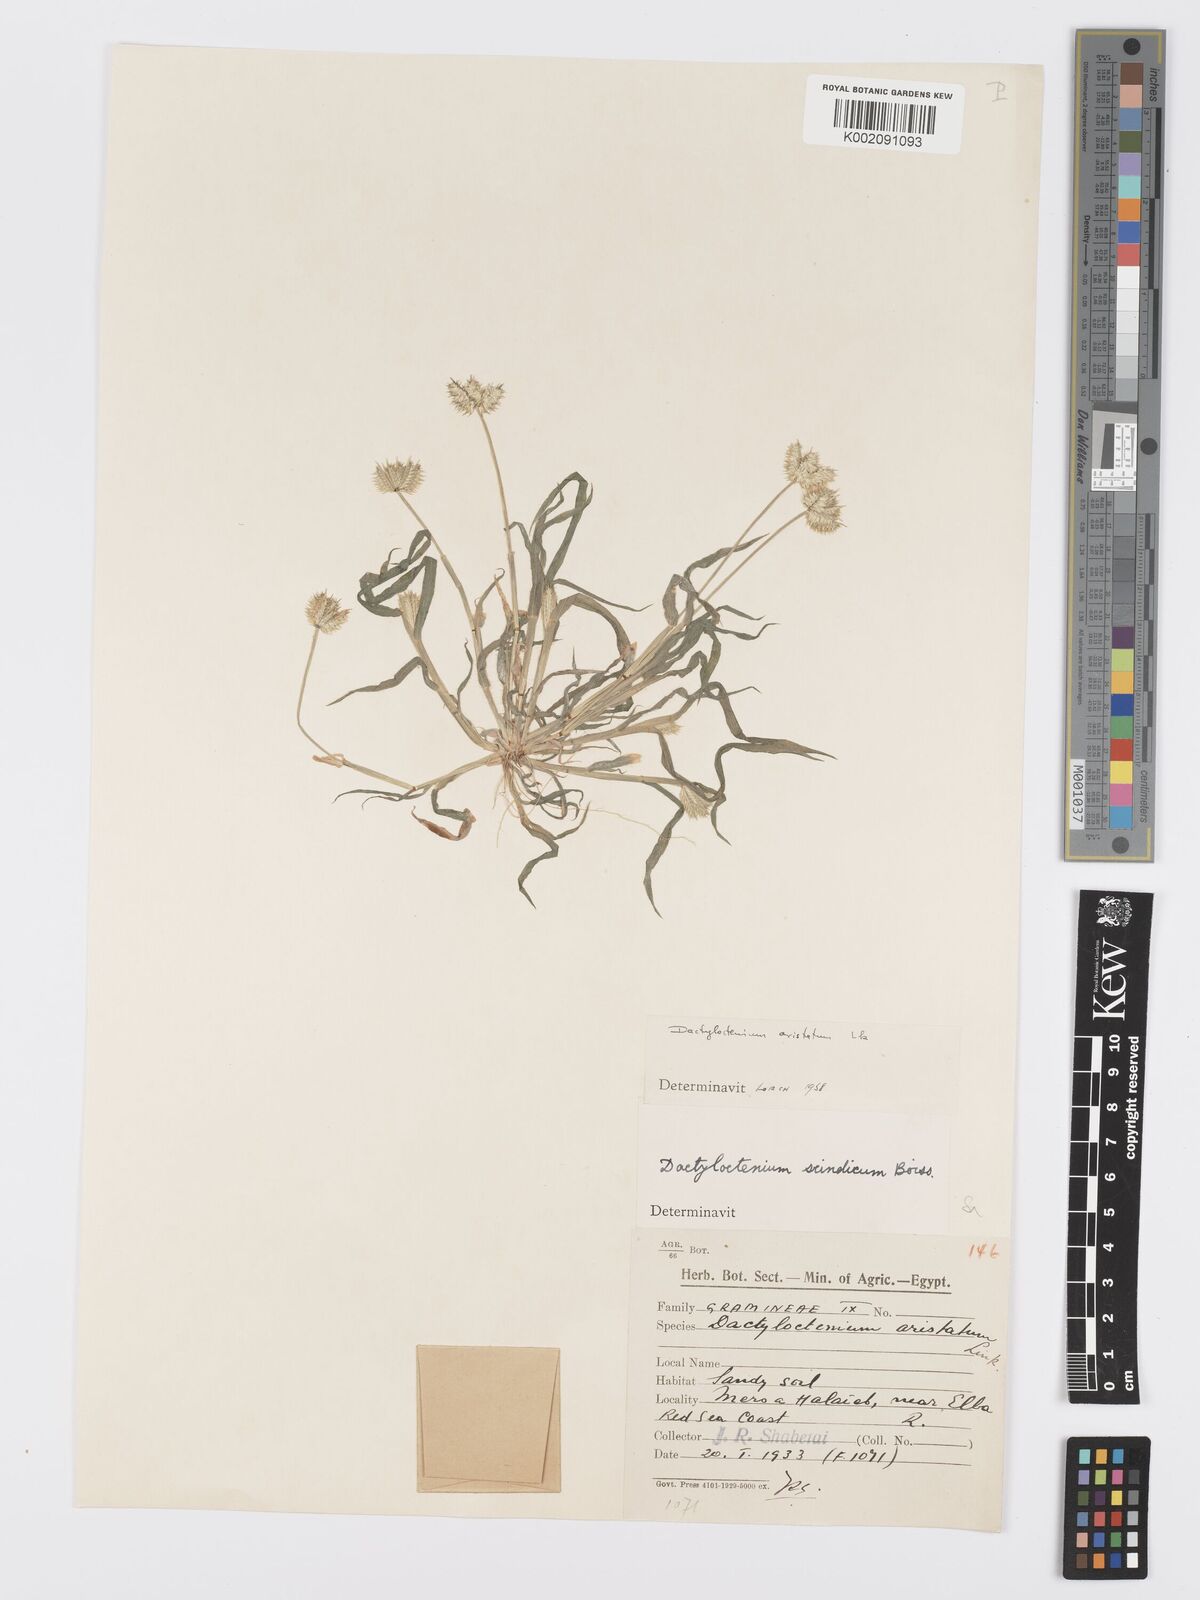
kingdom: Plantae
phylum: Tracheophyta
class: Liliopsida
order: Poales
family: Poaceae
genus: Dactyloctenium
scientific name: Dactyloctenium aristatum
